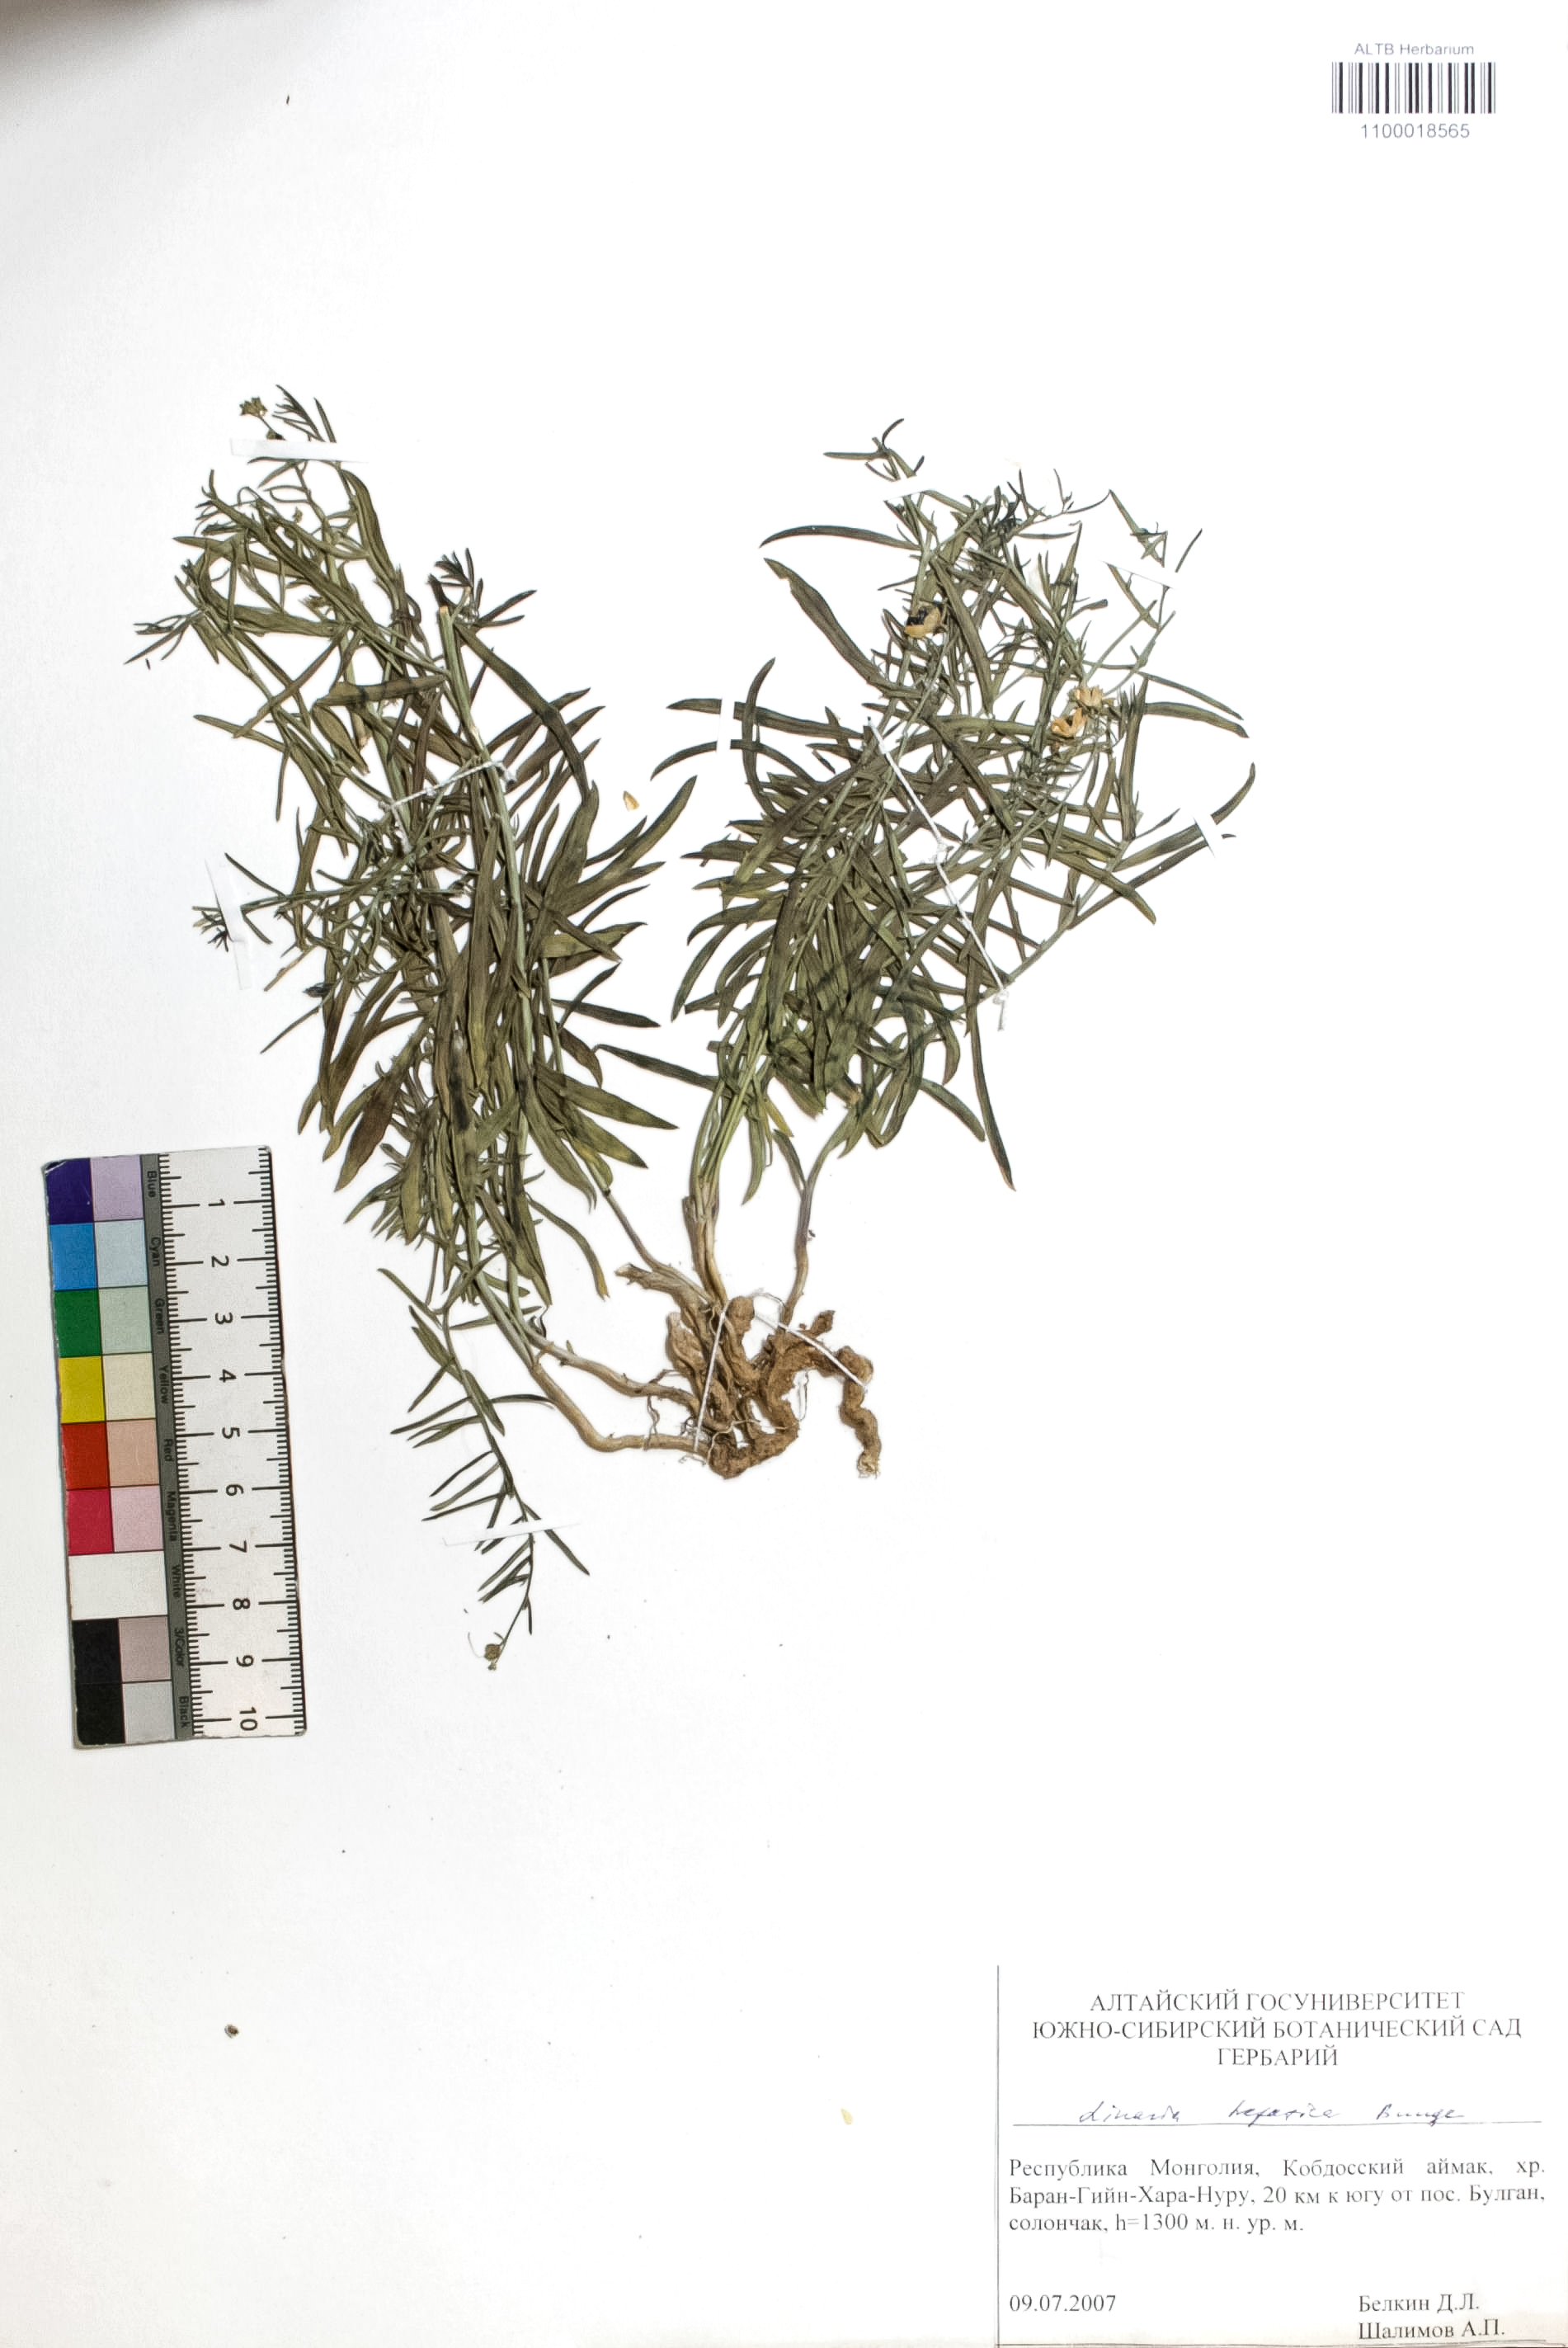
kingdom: Plantae
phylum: Tracheophyta
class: Magnoliopsida
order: Lamiales
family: Plantaginaceae
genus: Linaria
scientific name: Linaria hepatica
